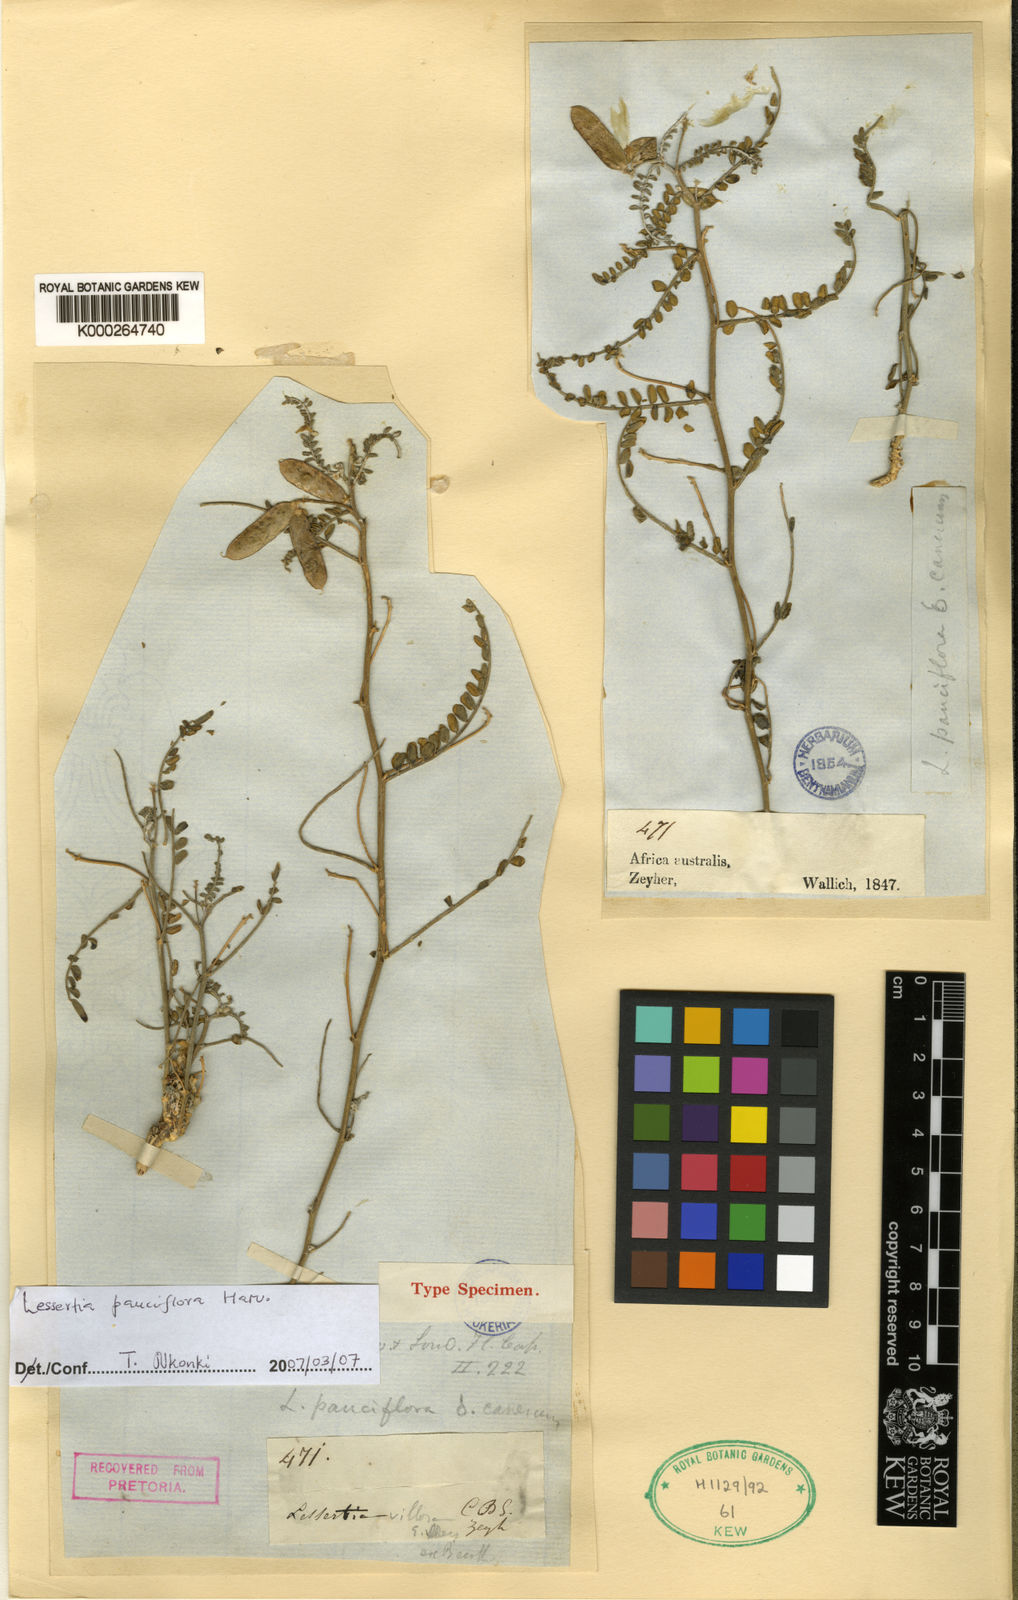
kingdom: Plantae
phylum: Tracheophyta
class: Magnoliopsida
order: Fabales
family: Fabaceae
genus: Lessertia
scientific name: Lessertia pauciflora
